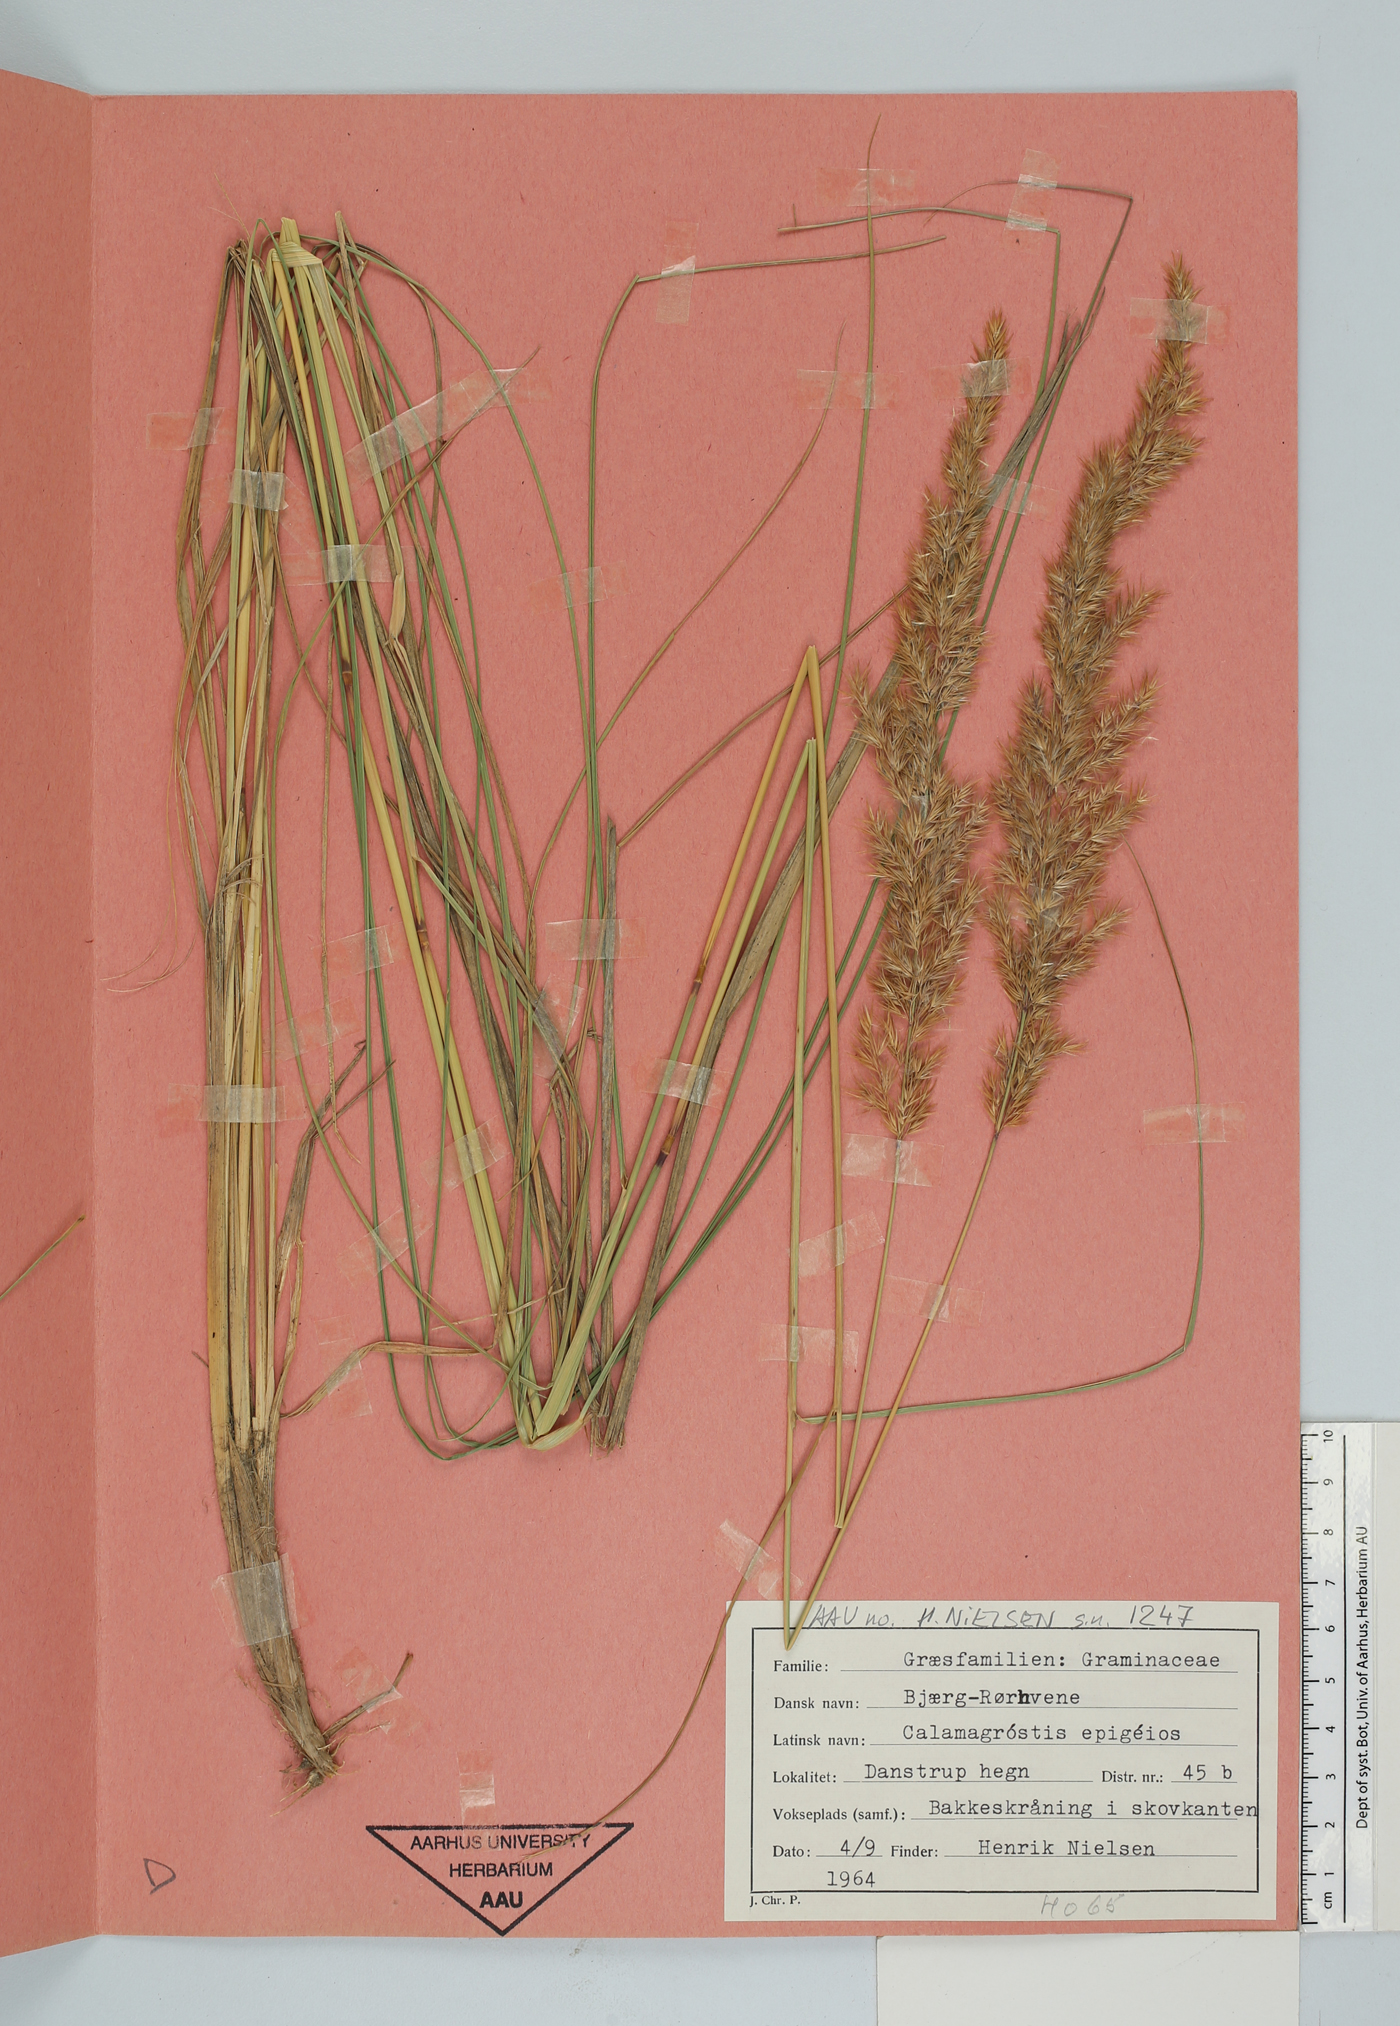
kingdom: Plantae
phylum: Tracheophyta
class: Liliopsida
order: Poales
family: Poaceae
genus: Calamagrostis
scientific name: Calamagrostis epigejos
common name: Wood small-reed
